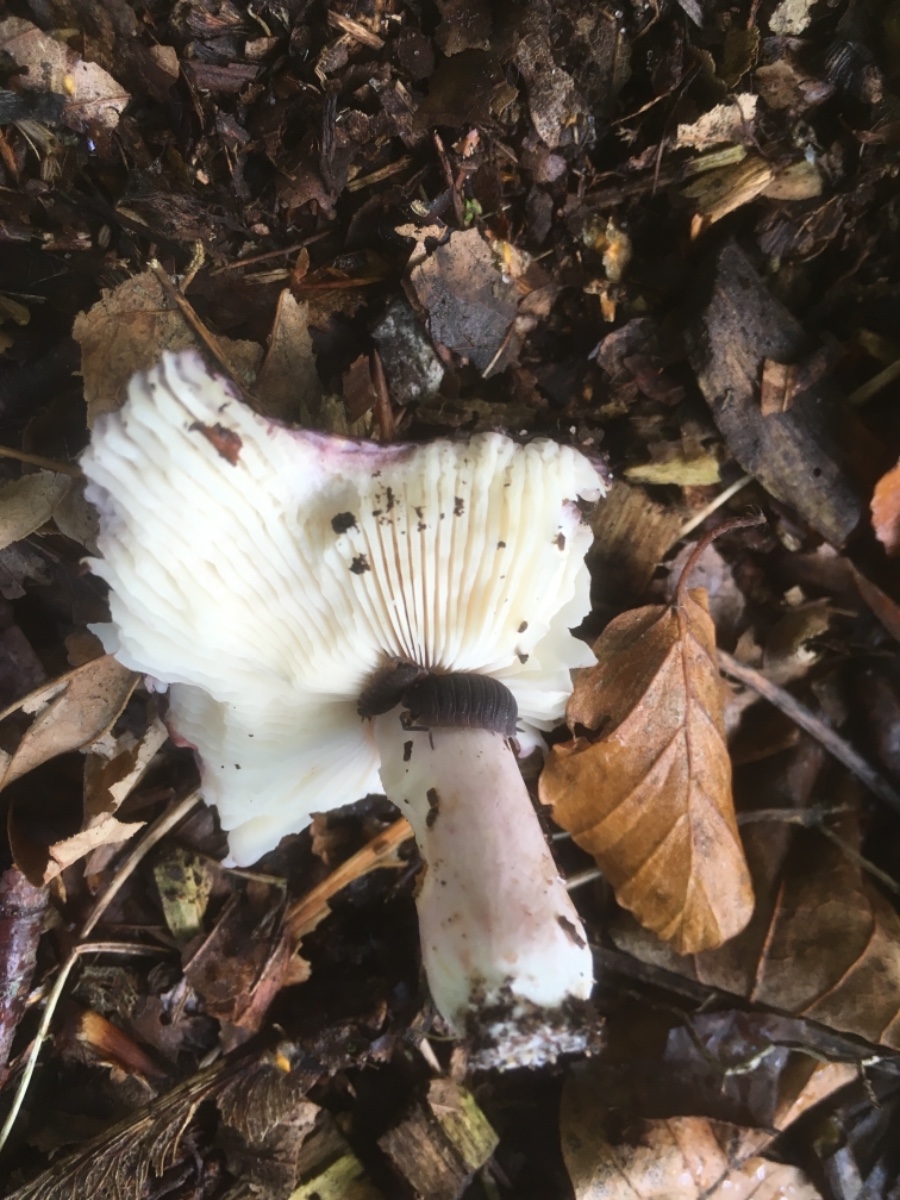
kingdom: Fungi
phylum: Basidiomycota
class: Agaricomycetes
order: Russulales
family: Russulaceae
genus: Russula
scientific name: Russula
